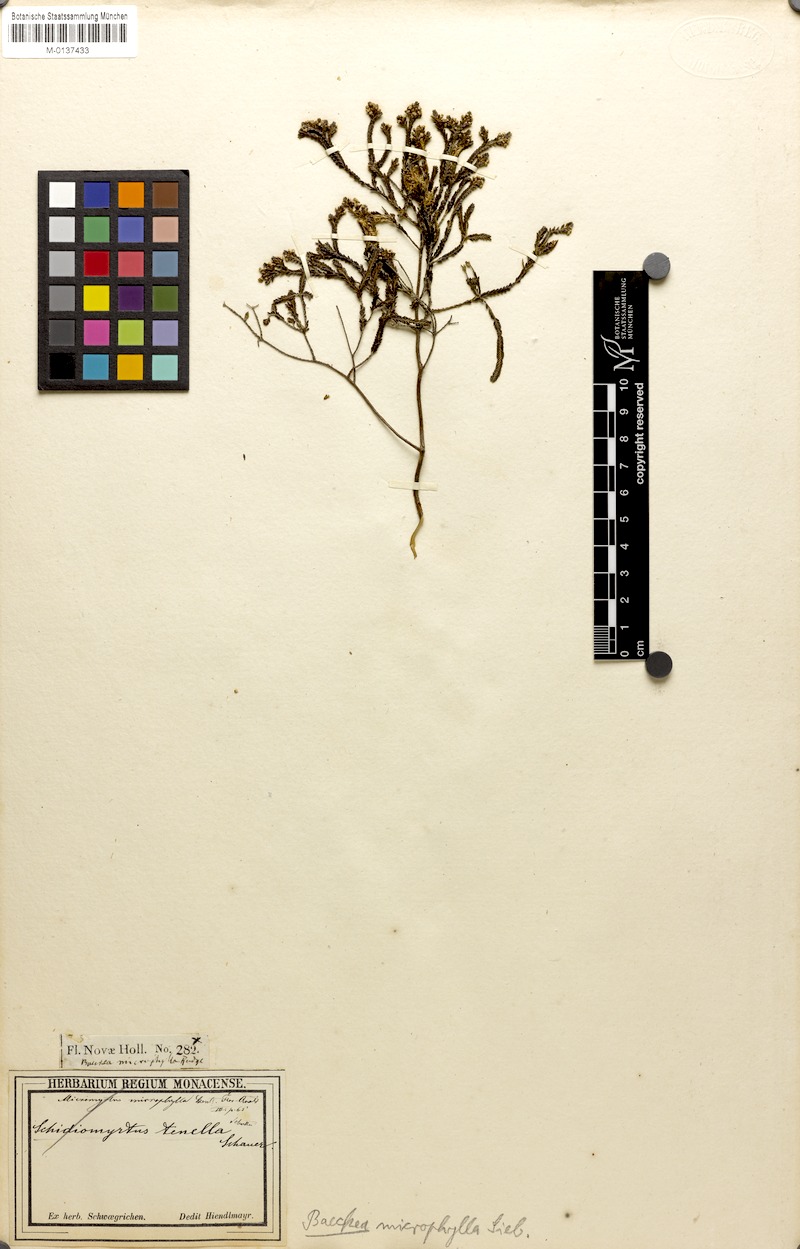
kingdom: Plantae
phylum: Tracheophyta
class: Magnoliopsida
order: Myrtales
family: Myrtaceae
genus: Micromyrtus
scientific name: Micromyrtus ciliata
